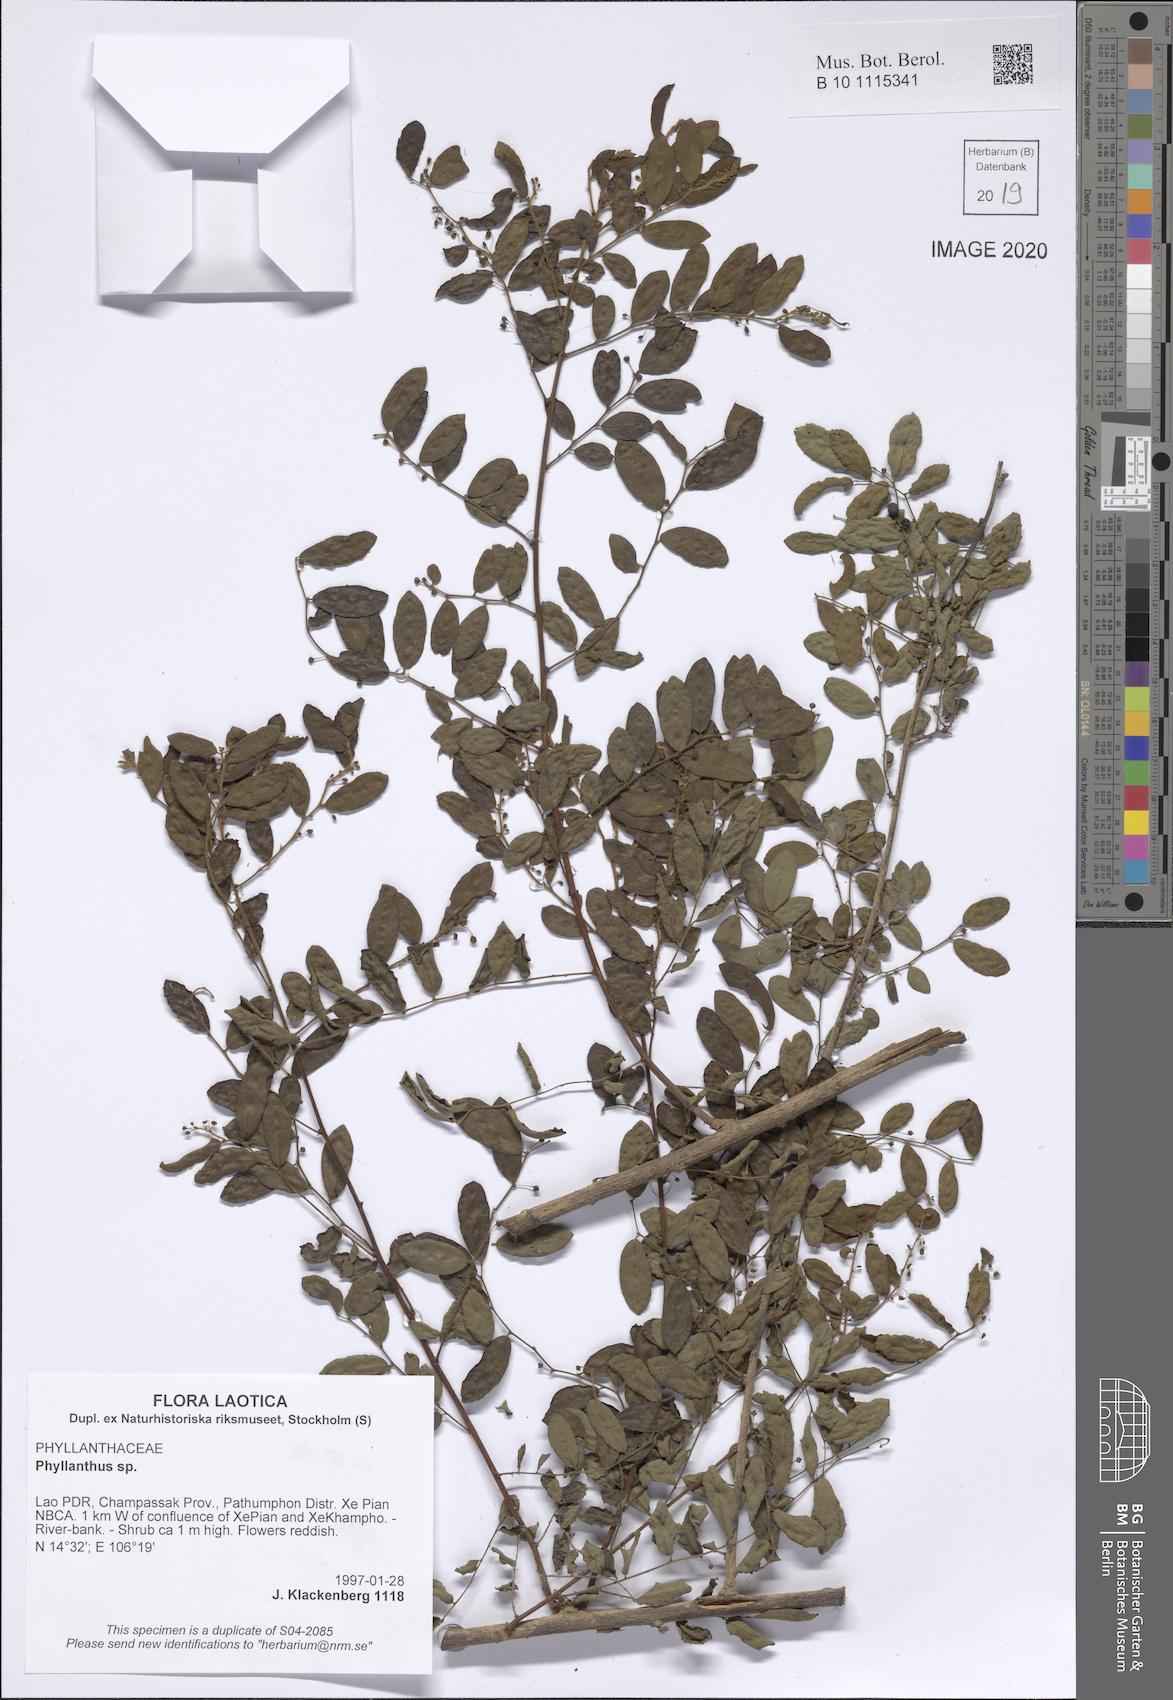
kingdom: Plantae
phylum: Tracheophyta
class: Magnoliopsida
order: Malpighiales
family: Phyllanthaceae
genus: Phyllanthus
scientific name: Phyllanthus
